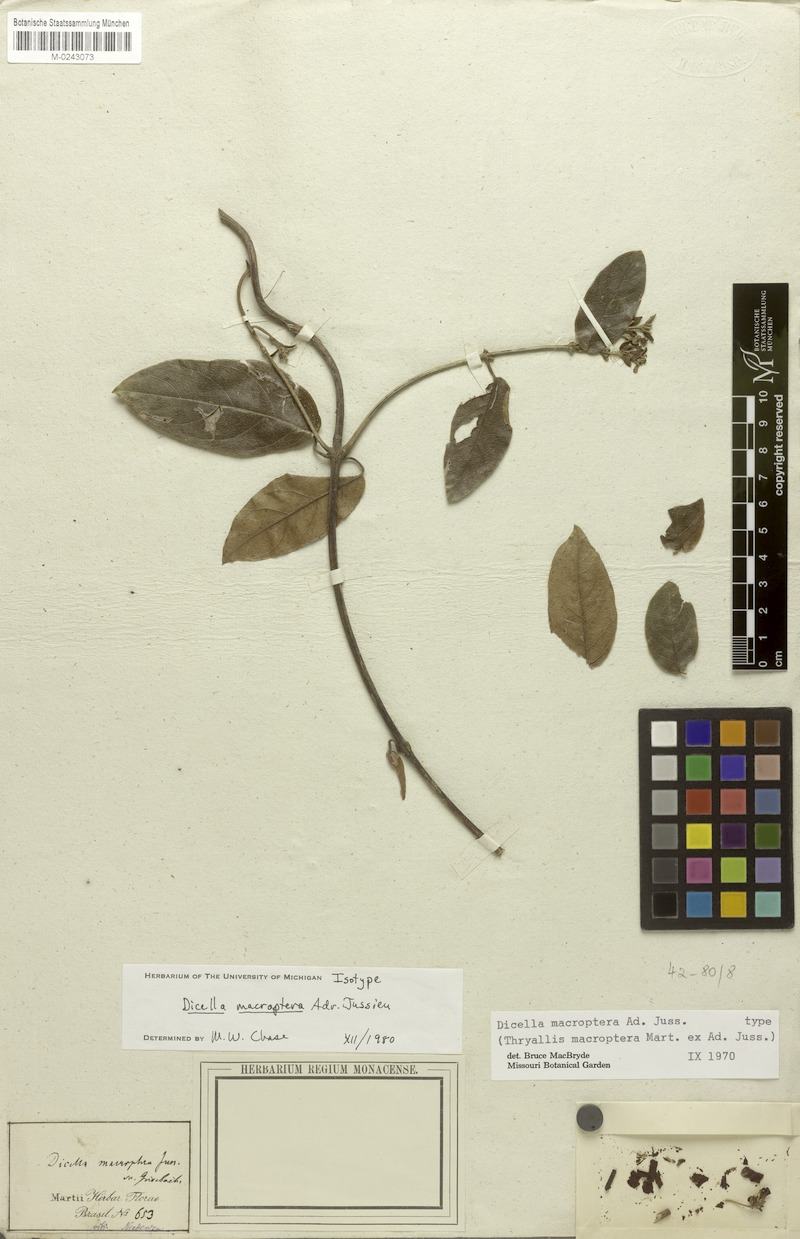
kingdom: Plantae
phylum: Tracheophyta
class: Magnoliopsida
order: Malpighiales
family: Malpighiaceae
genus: Dicella
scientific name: Dicella macroptera
